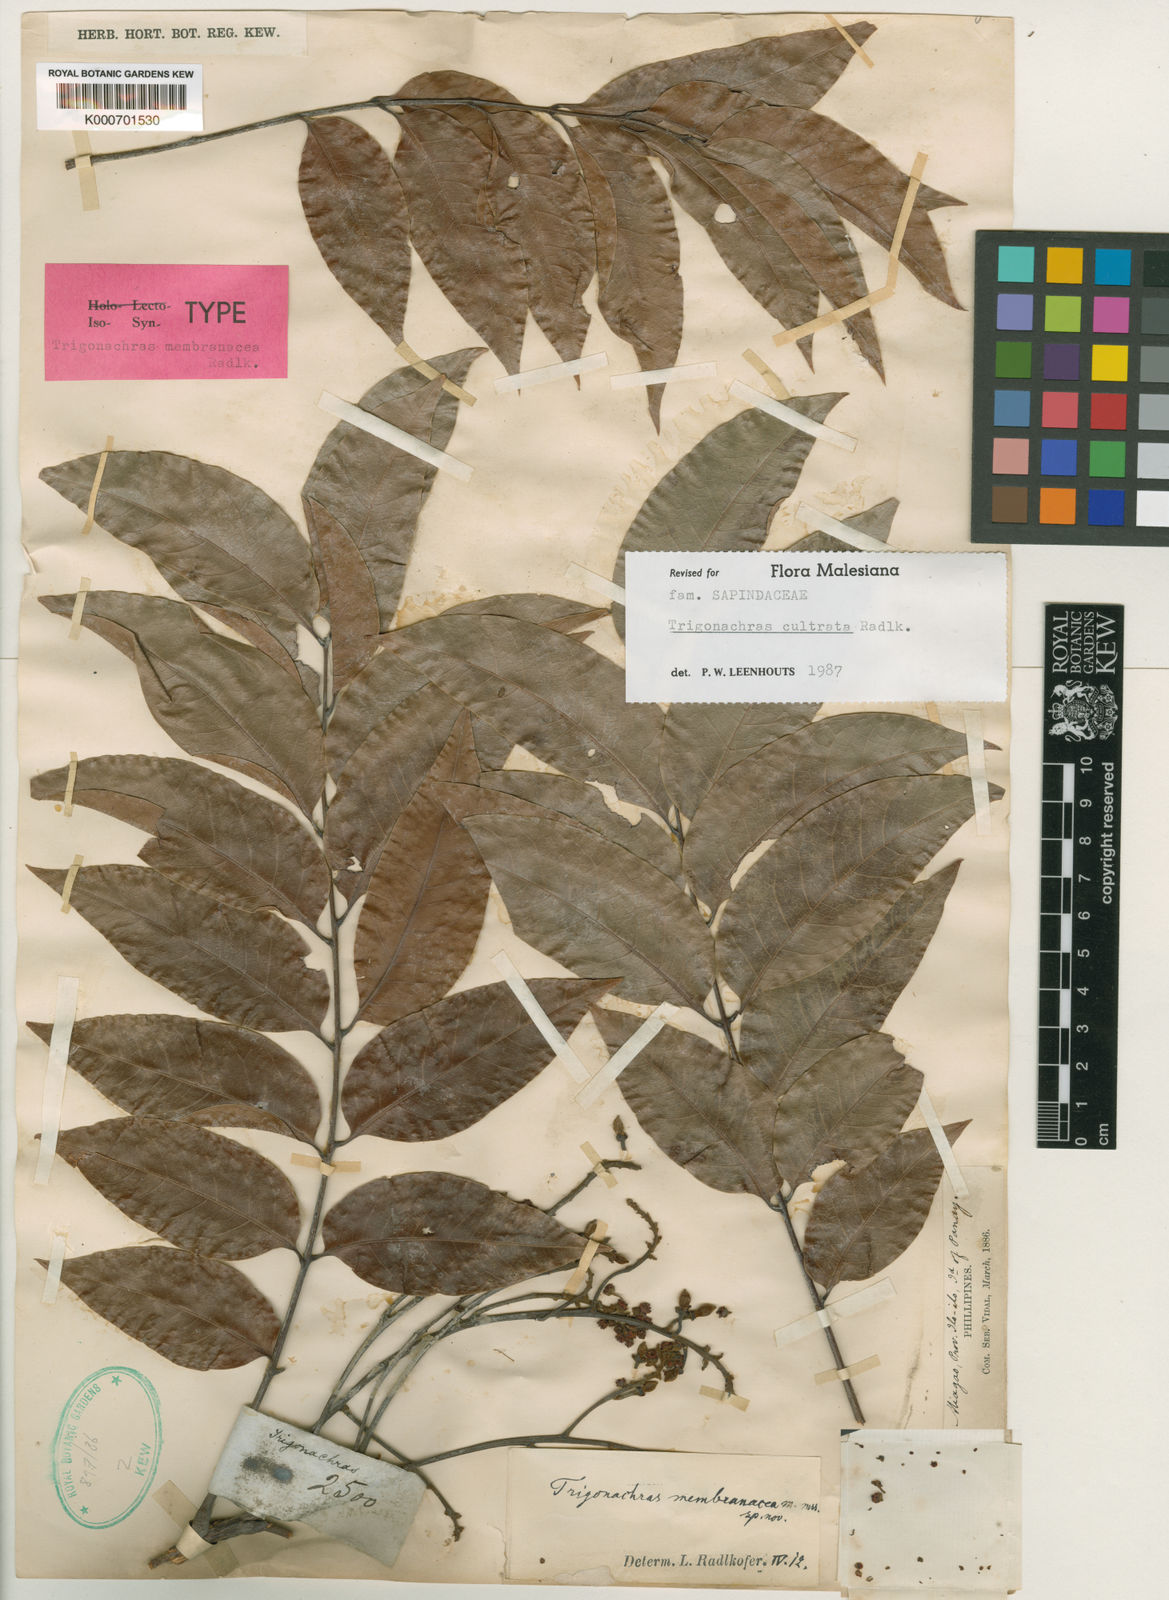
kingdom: Plantae
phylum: Tracheophyta
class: Magnoliopsida
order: Sapindales
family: Sapindaceae
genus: Trigonachras
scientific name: Trigonachras cultrata
